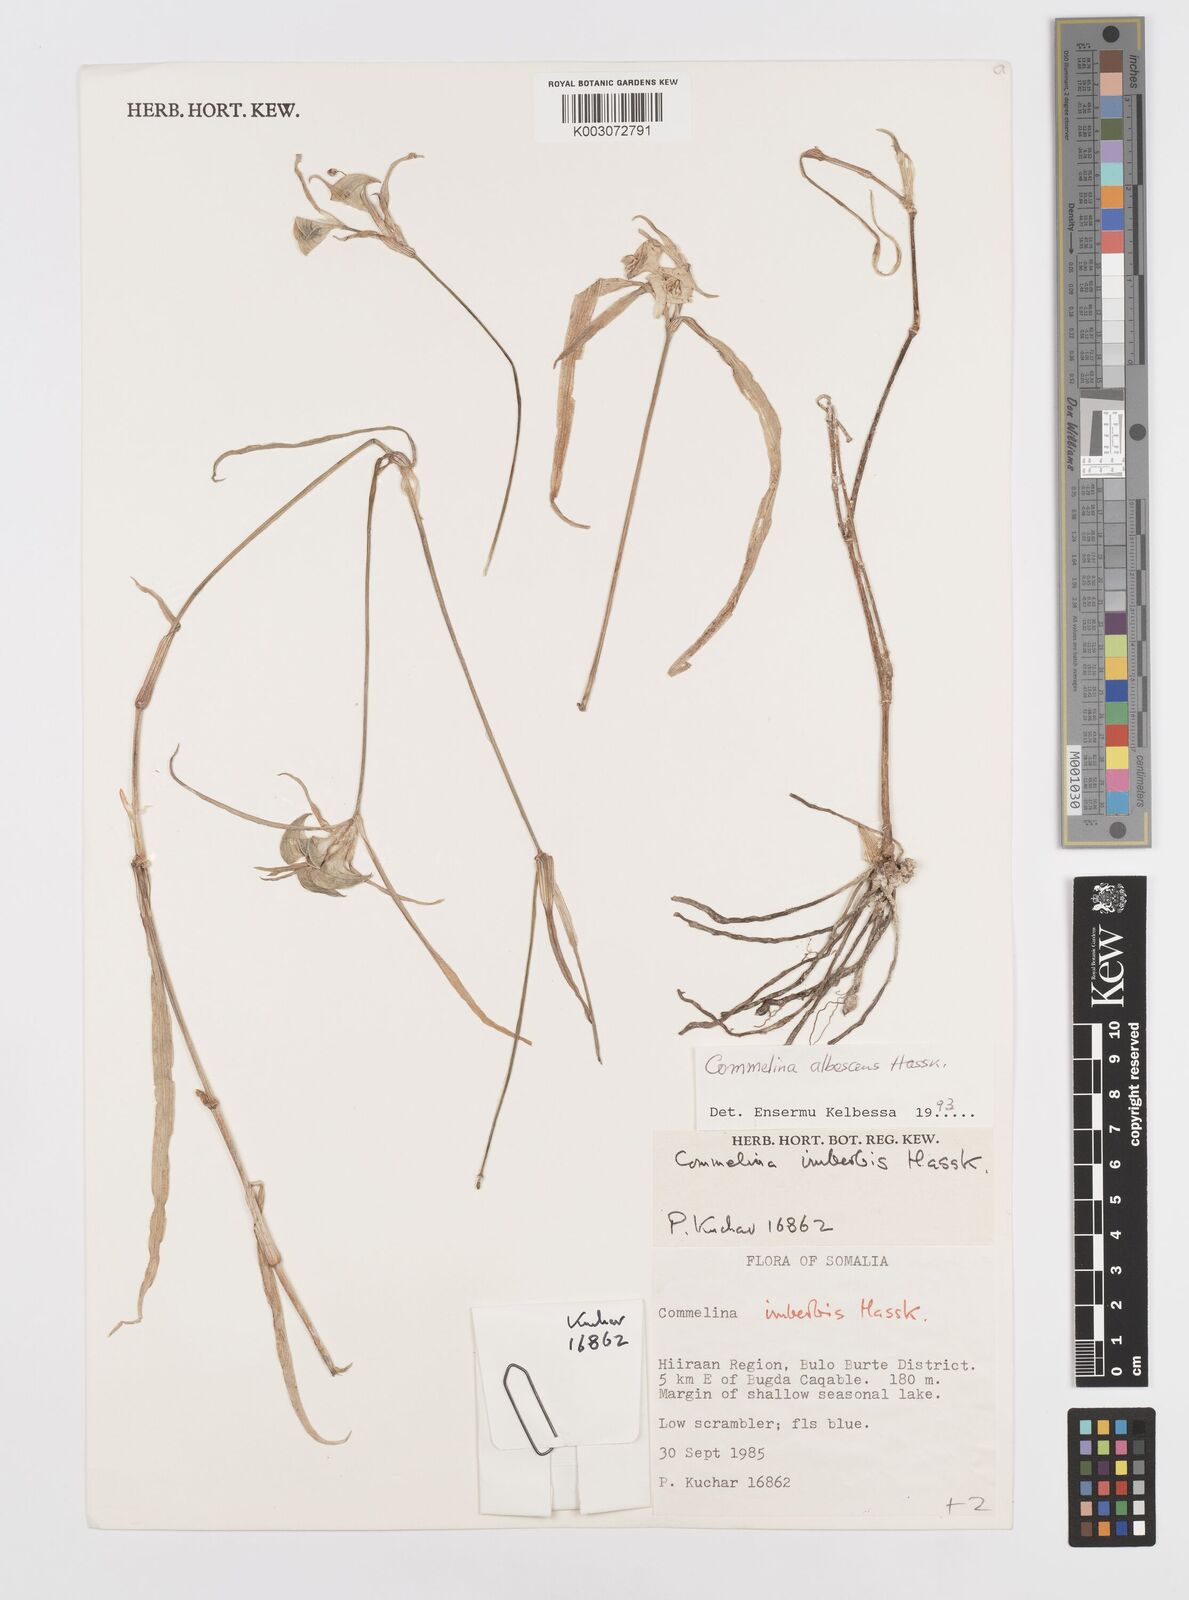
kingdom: Plantae
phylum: Tracheophyta
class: Liliopsida
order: Commelinales
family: Commelinaceae
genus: Commelina
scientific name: Commelina albescens
